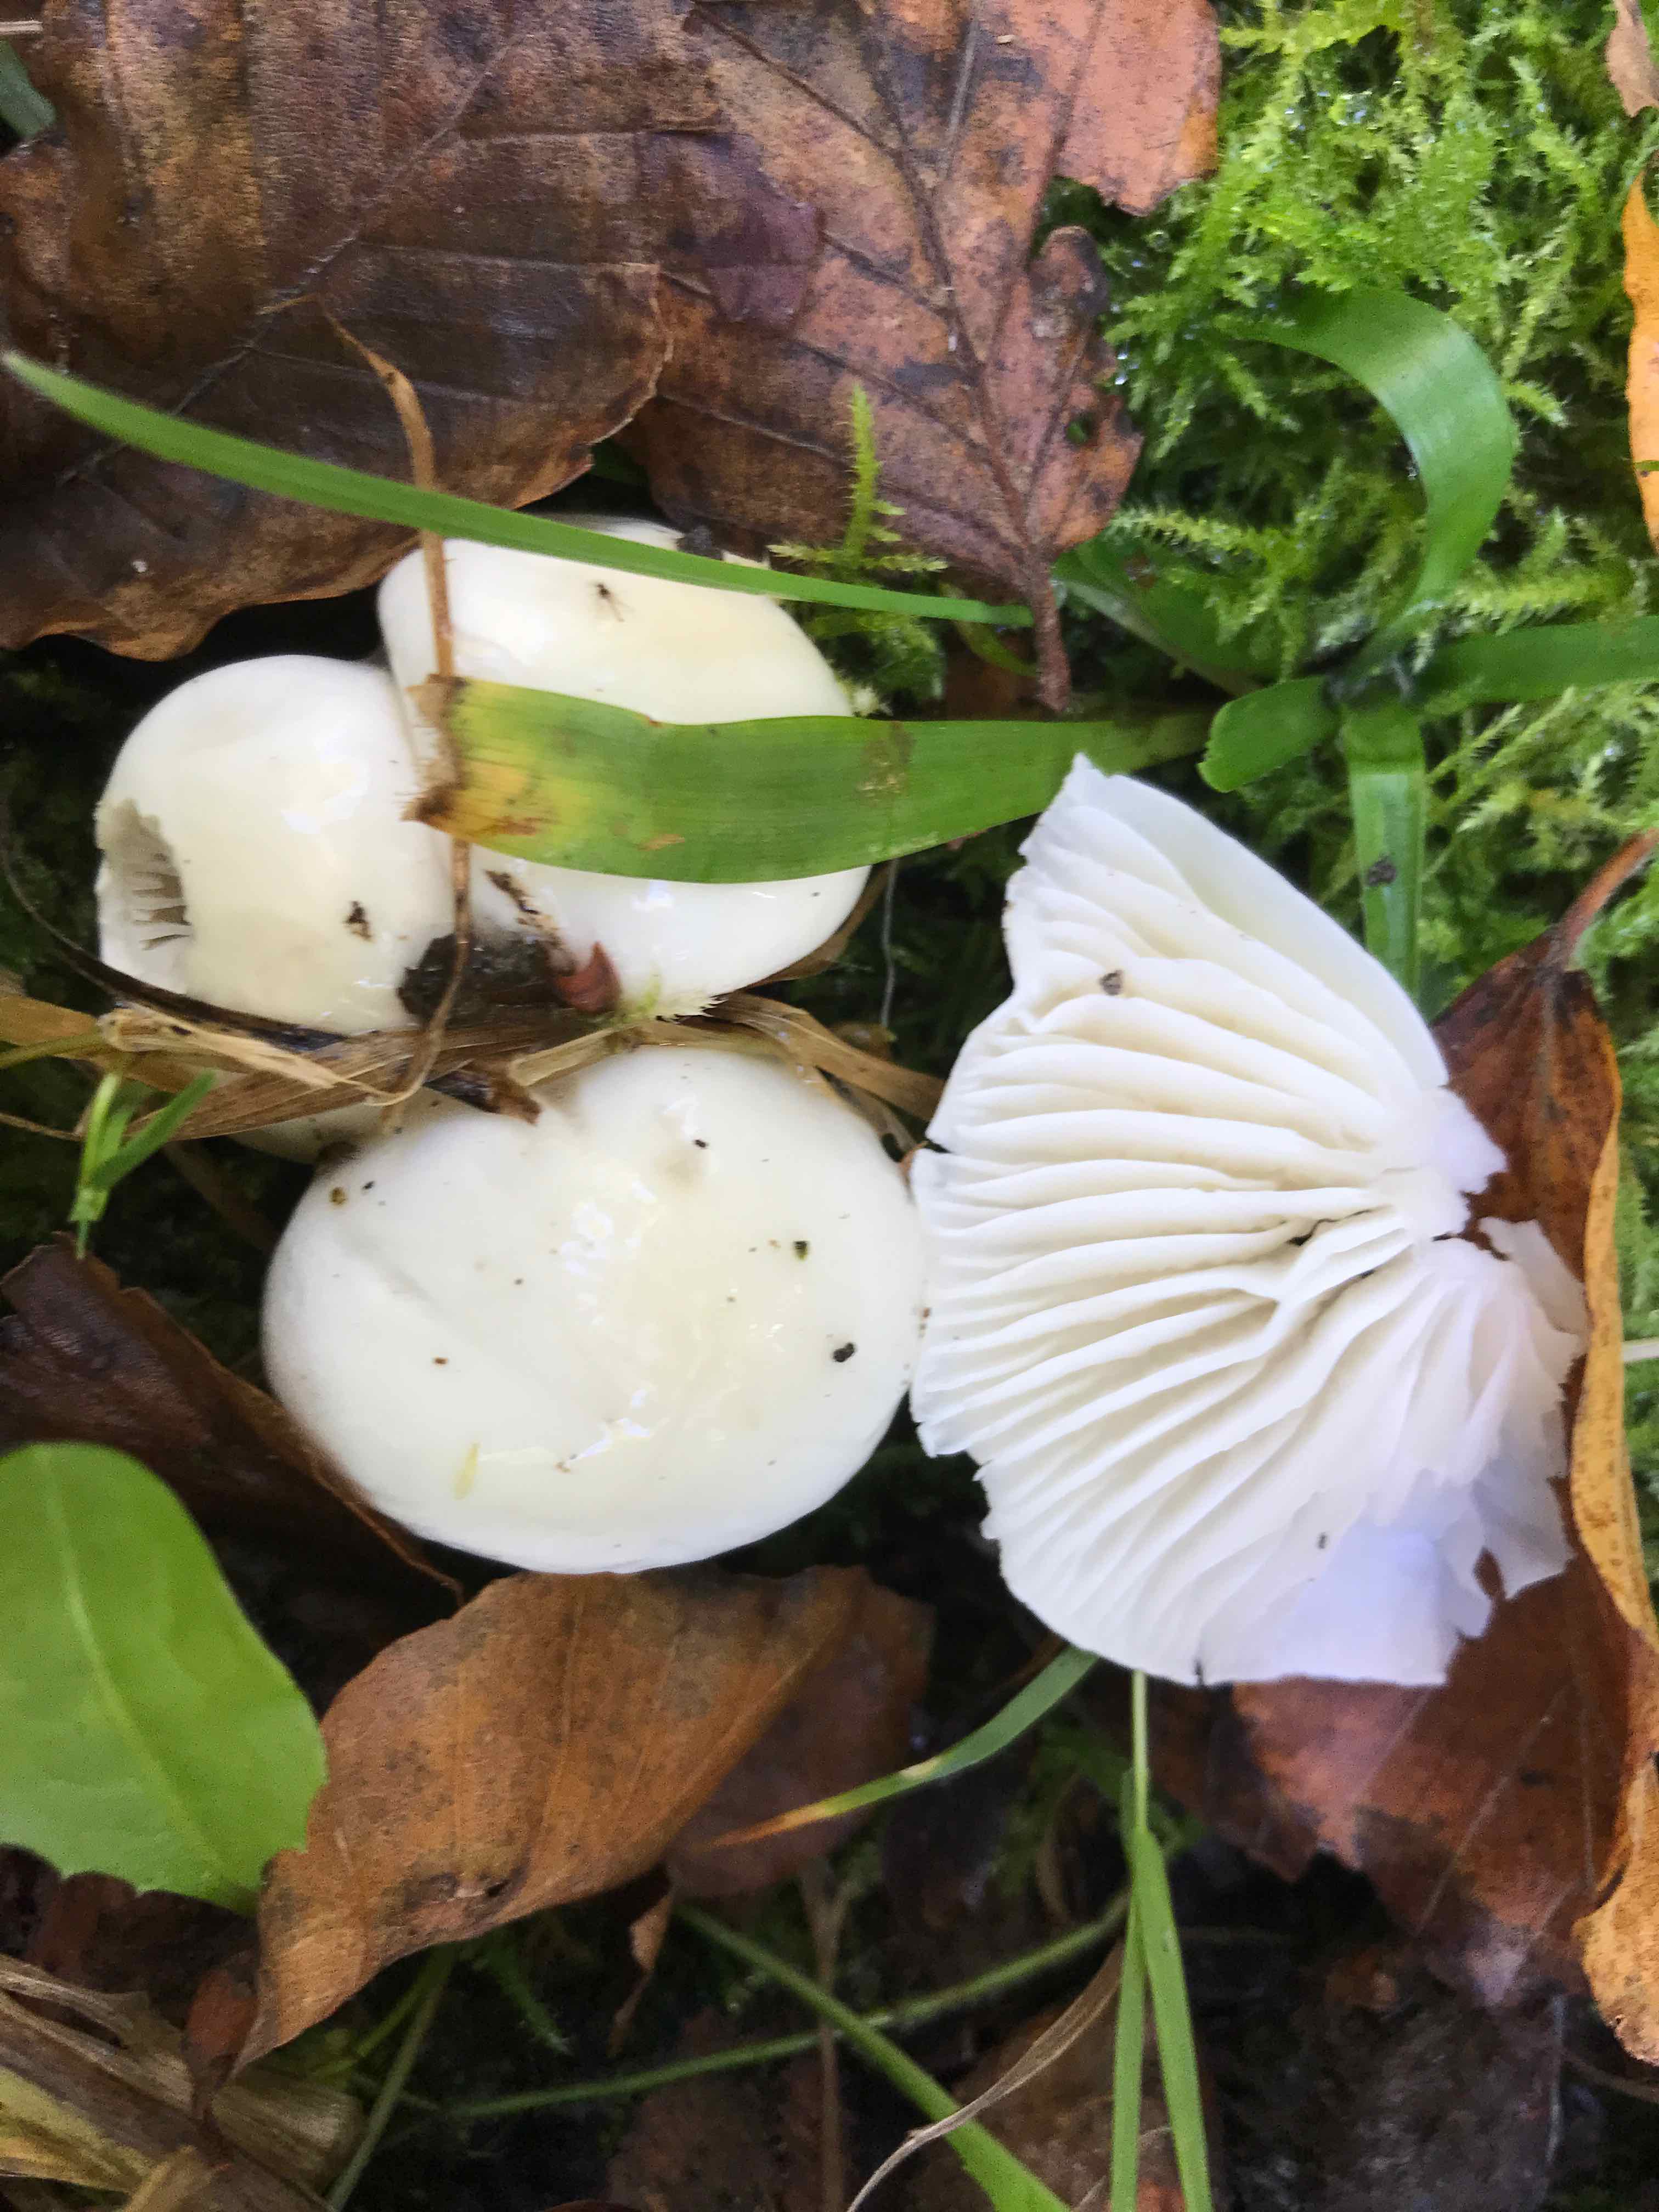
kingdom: Fungi
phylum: Basidiomycota
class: Agaricomycetes
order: Agaricales
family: Hygrophoraceae
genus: Hygrophorus
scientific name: Hygrophorus eburneus
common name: elfenbens-sneglehat
